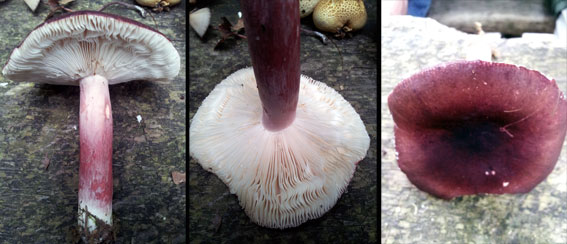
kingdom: Fungi
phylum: Basidiomycota
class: Agaricomycetes
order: Russulales
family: Russulaceae
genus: Russula
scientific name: Russula queletii
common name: Quélets skørhat
